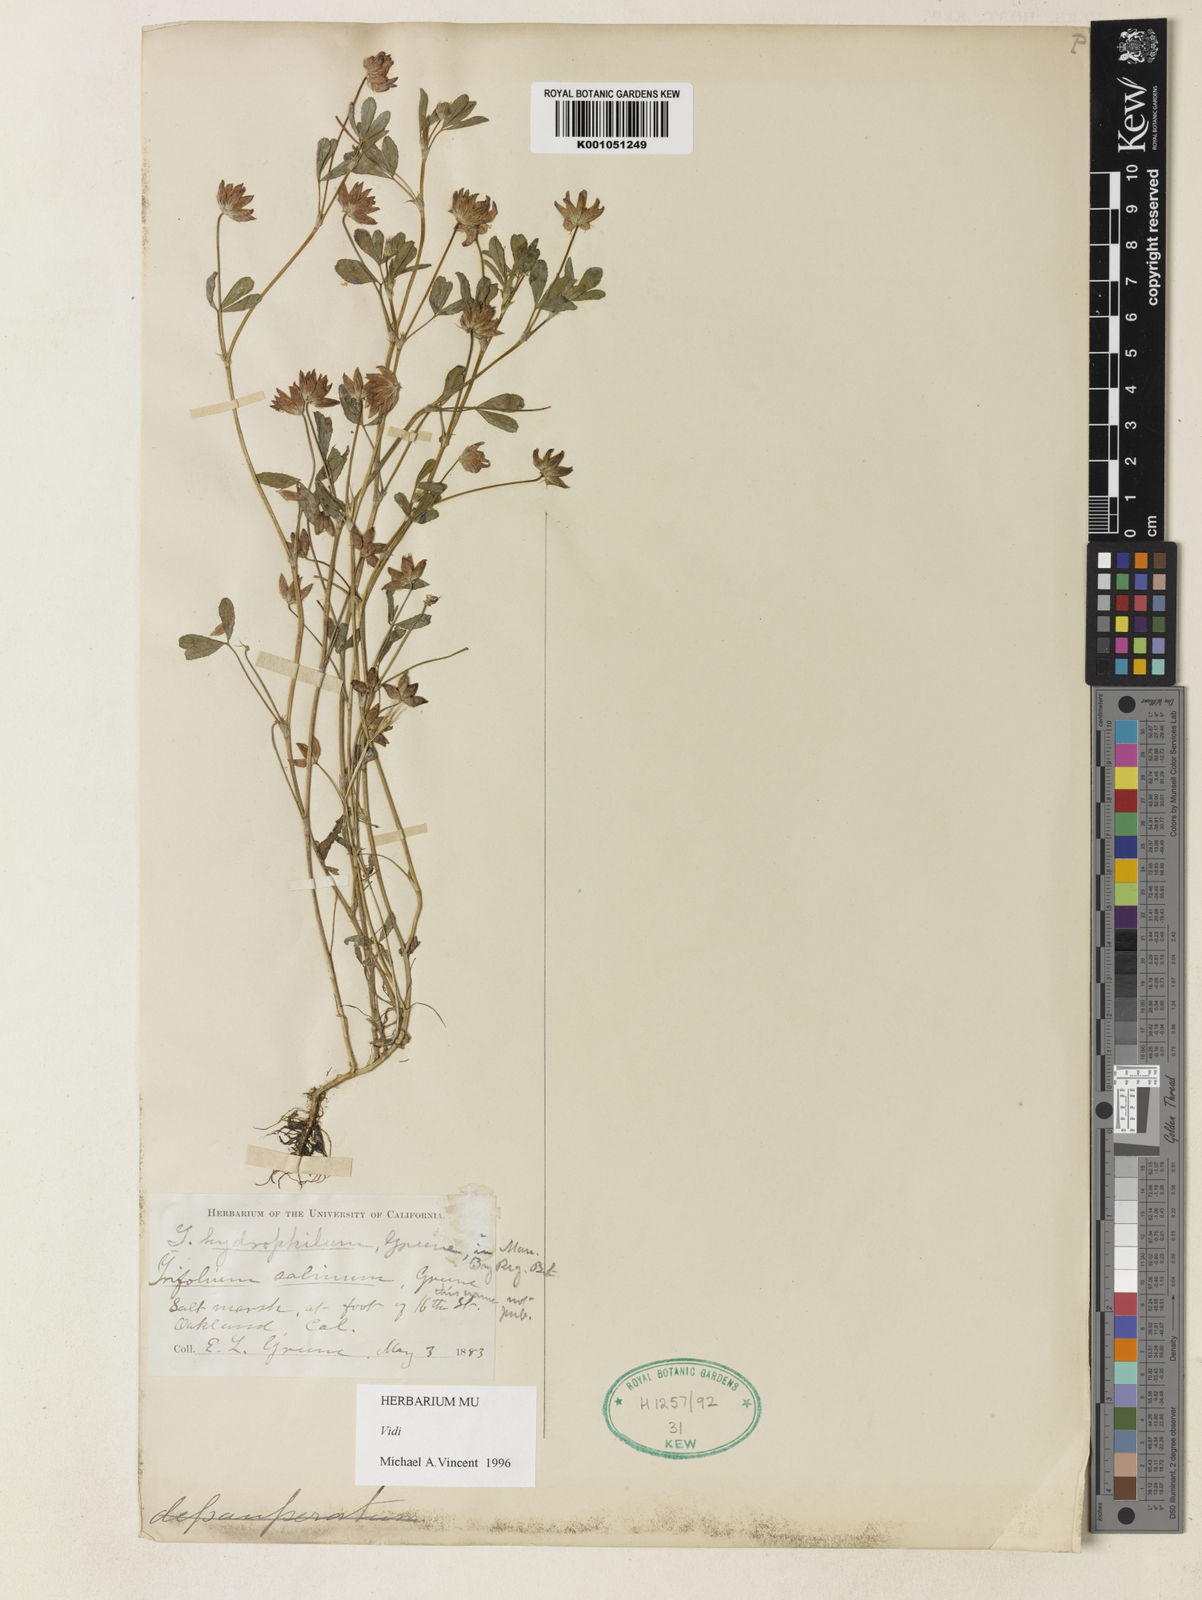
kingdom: Plantae
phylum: Tracheophyta
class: Magnoliopsida
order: Fabales
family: Fabaceae
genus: Trifolium
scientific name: Trifolium depauperatum
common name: Poverty clover
